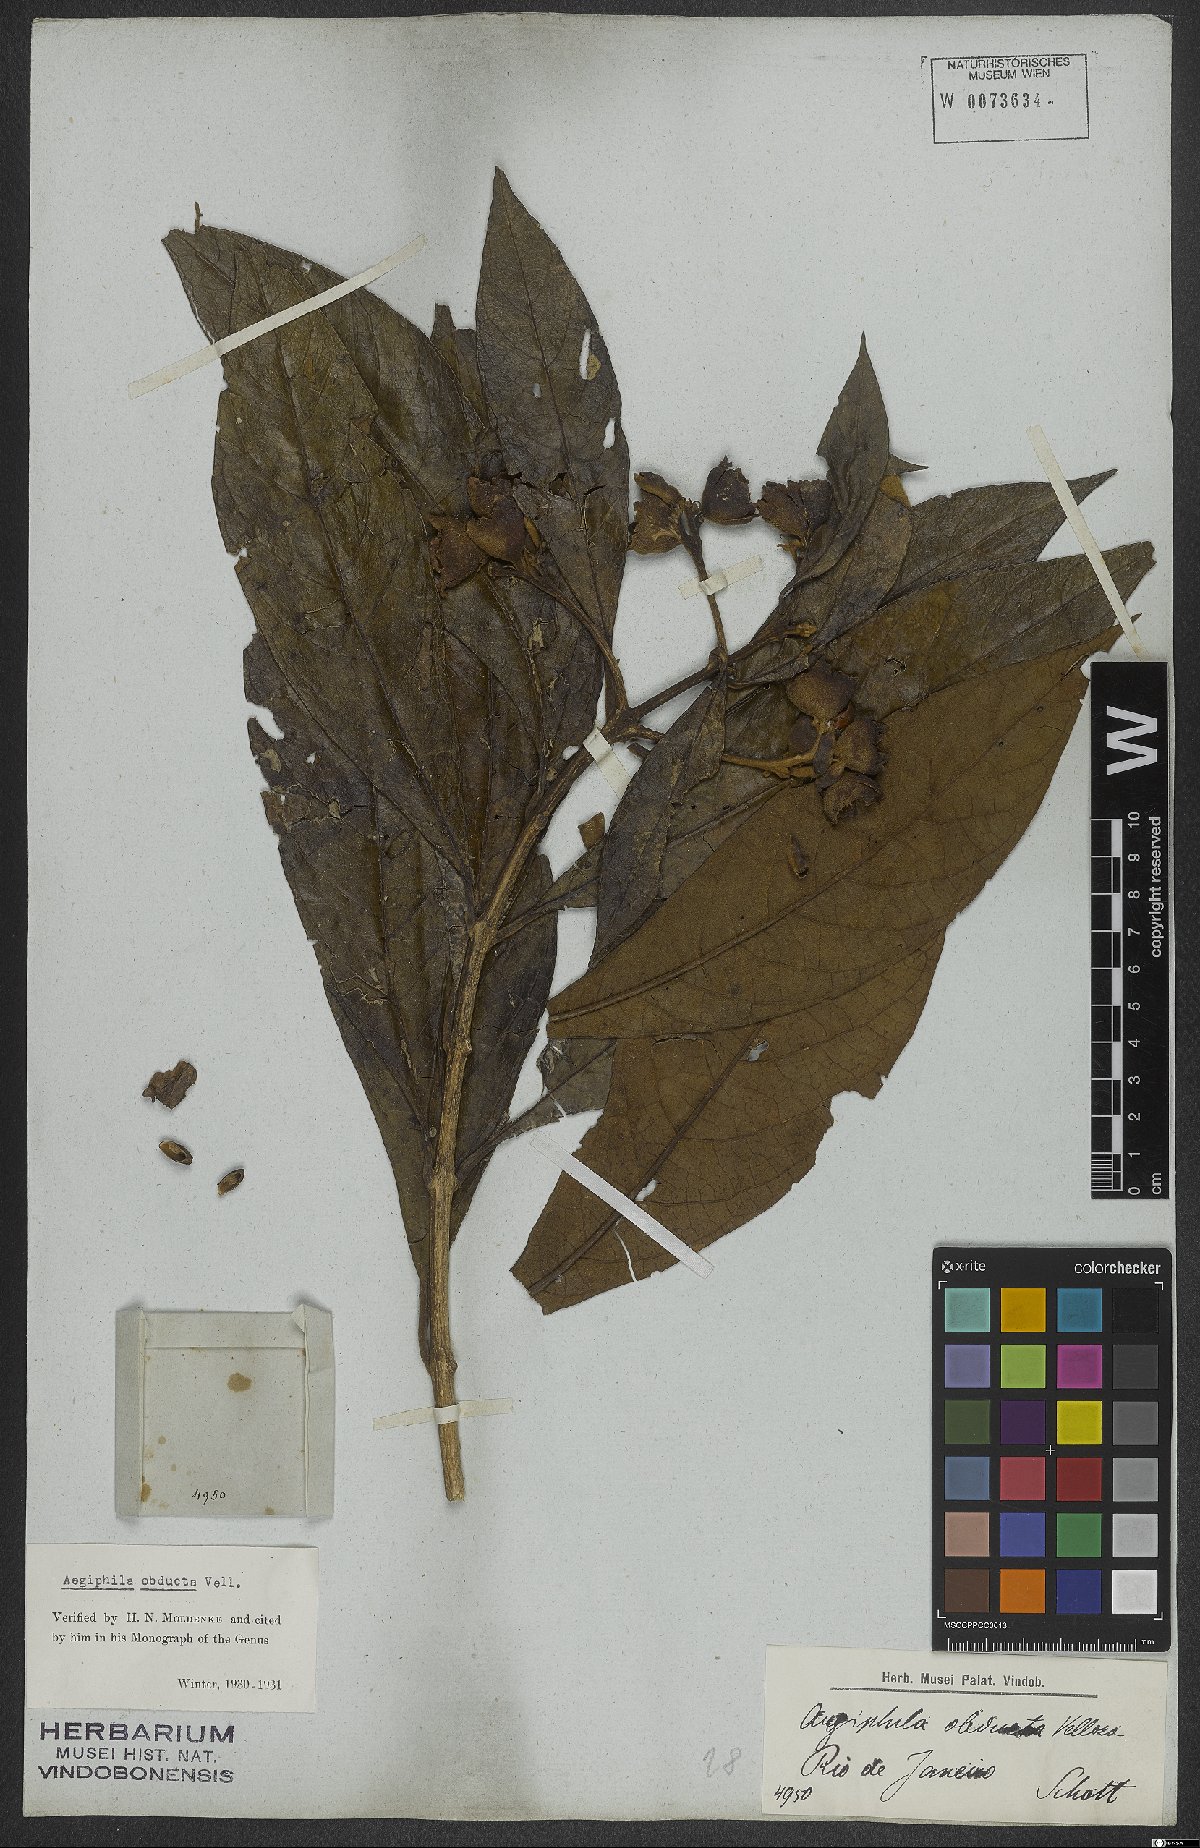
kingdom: Plantae
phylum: Tracheophyta
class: Magnoliopsida
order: Lamiales
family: Lamiaceae
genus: Aegiphila
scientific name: Aegiphila obducta
